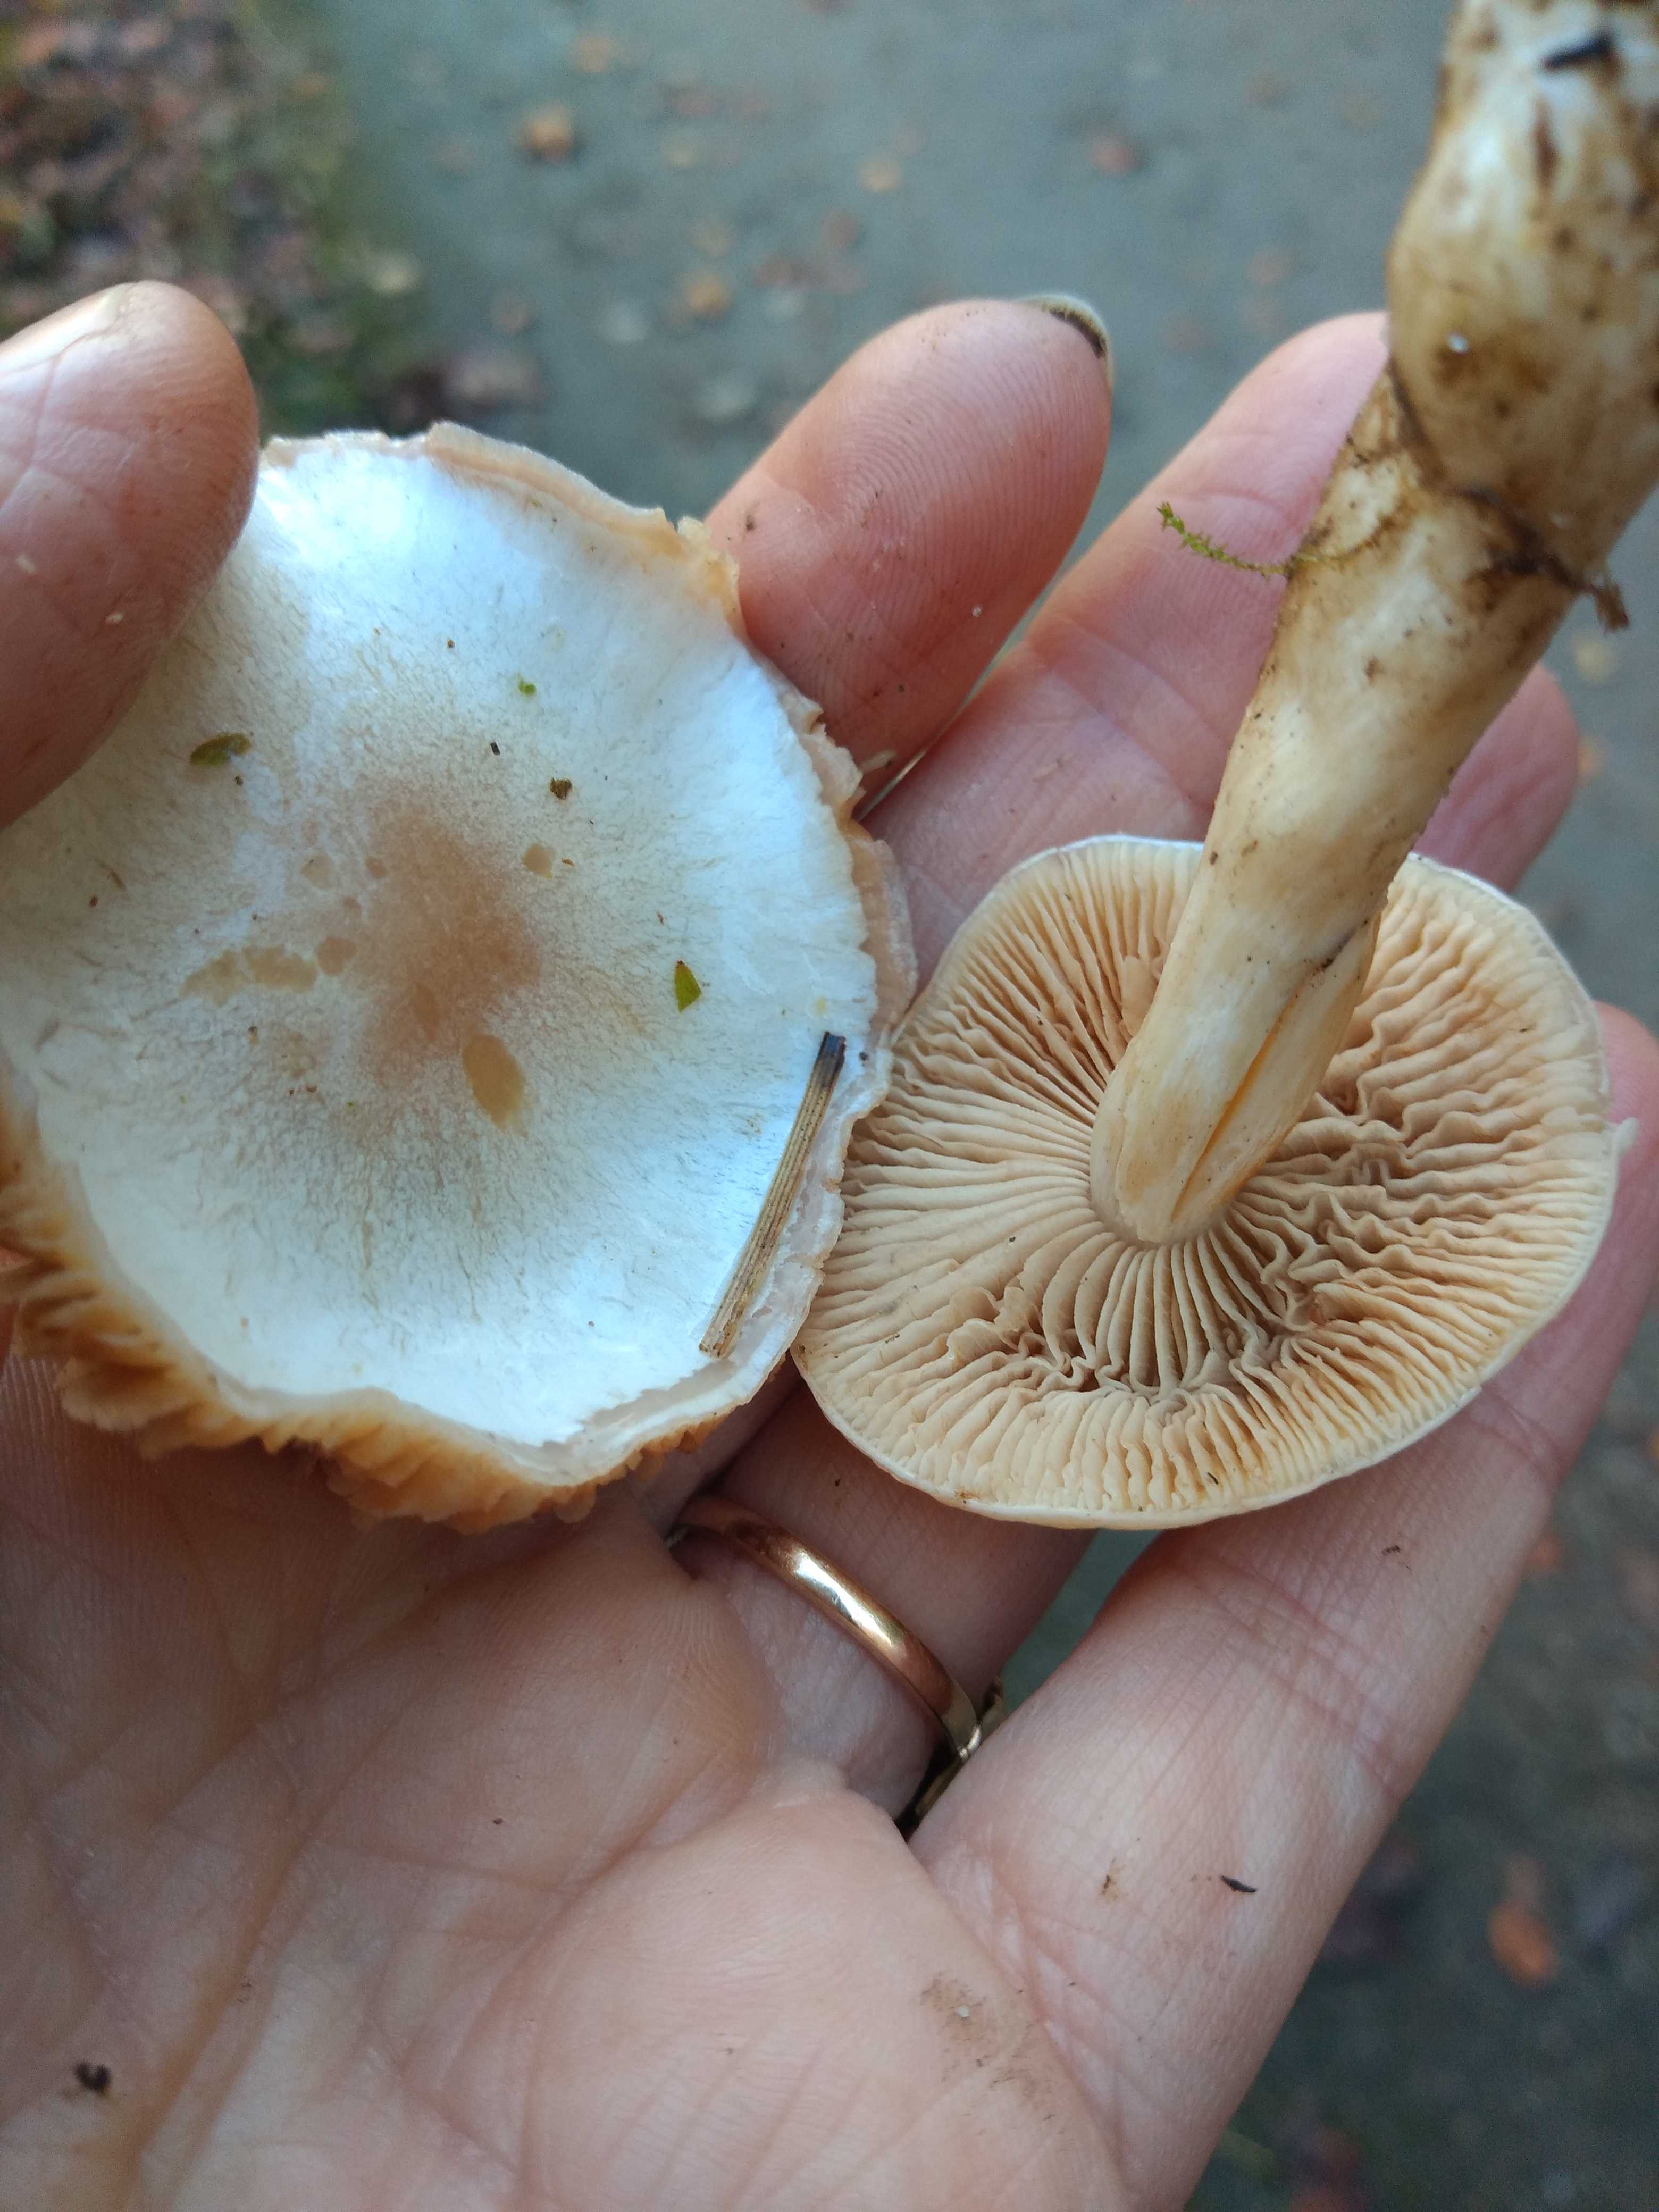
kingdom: Fungi
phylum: Basidiomycota
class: Agaricomycetes
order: Agaricales
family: Cortinariaceae
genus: Thaxterogaster
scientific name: Thaxterogaster
